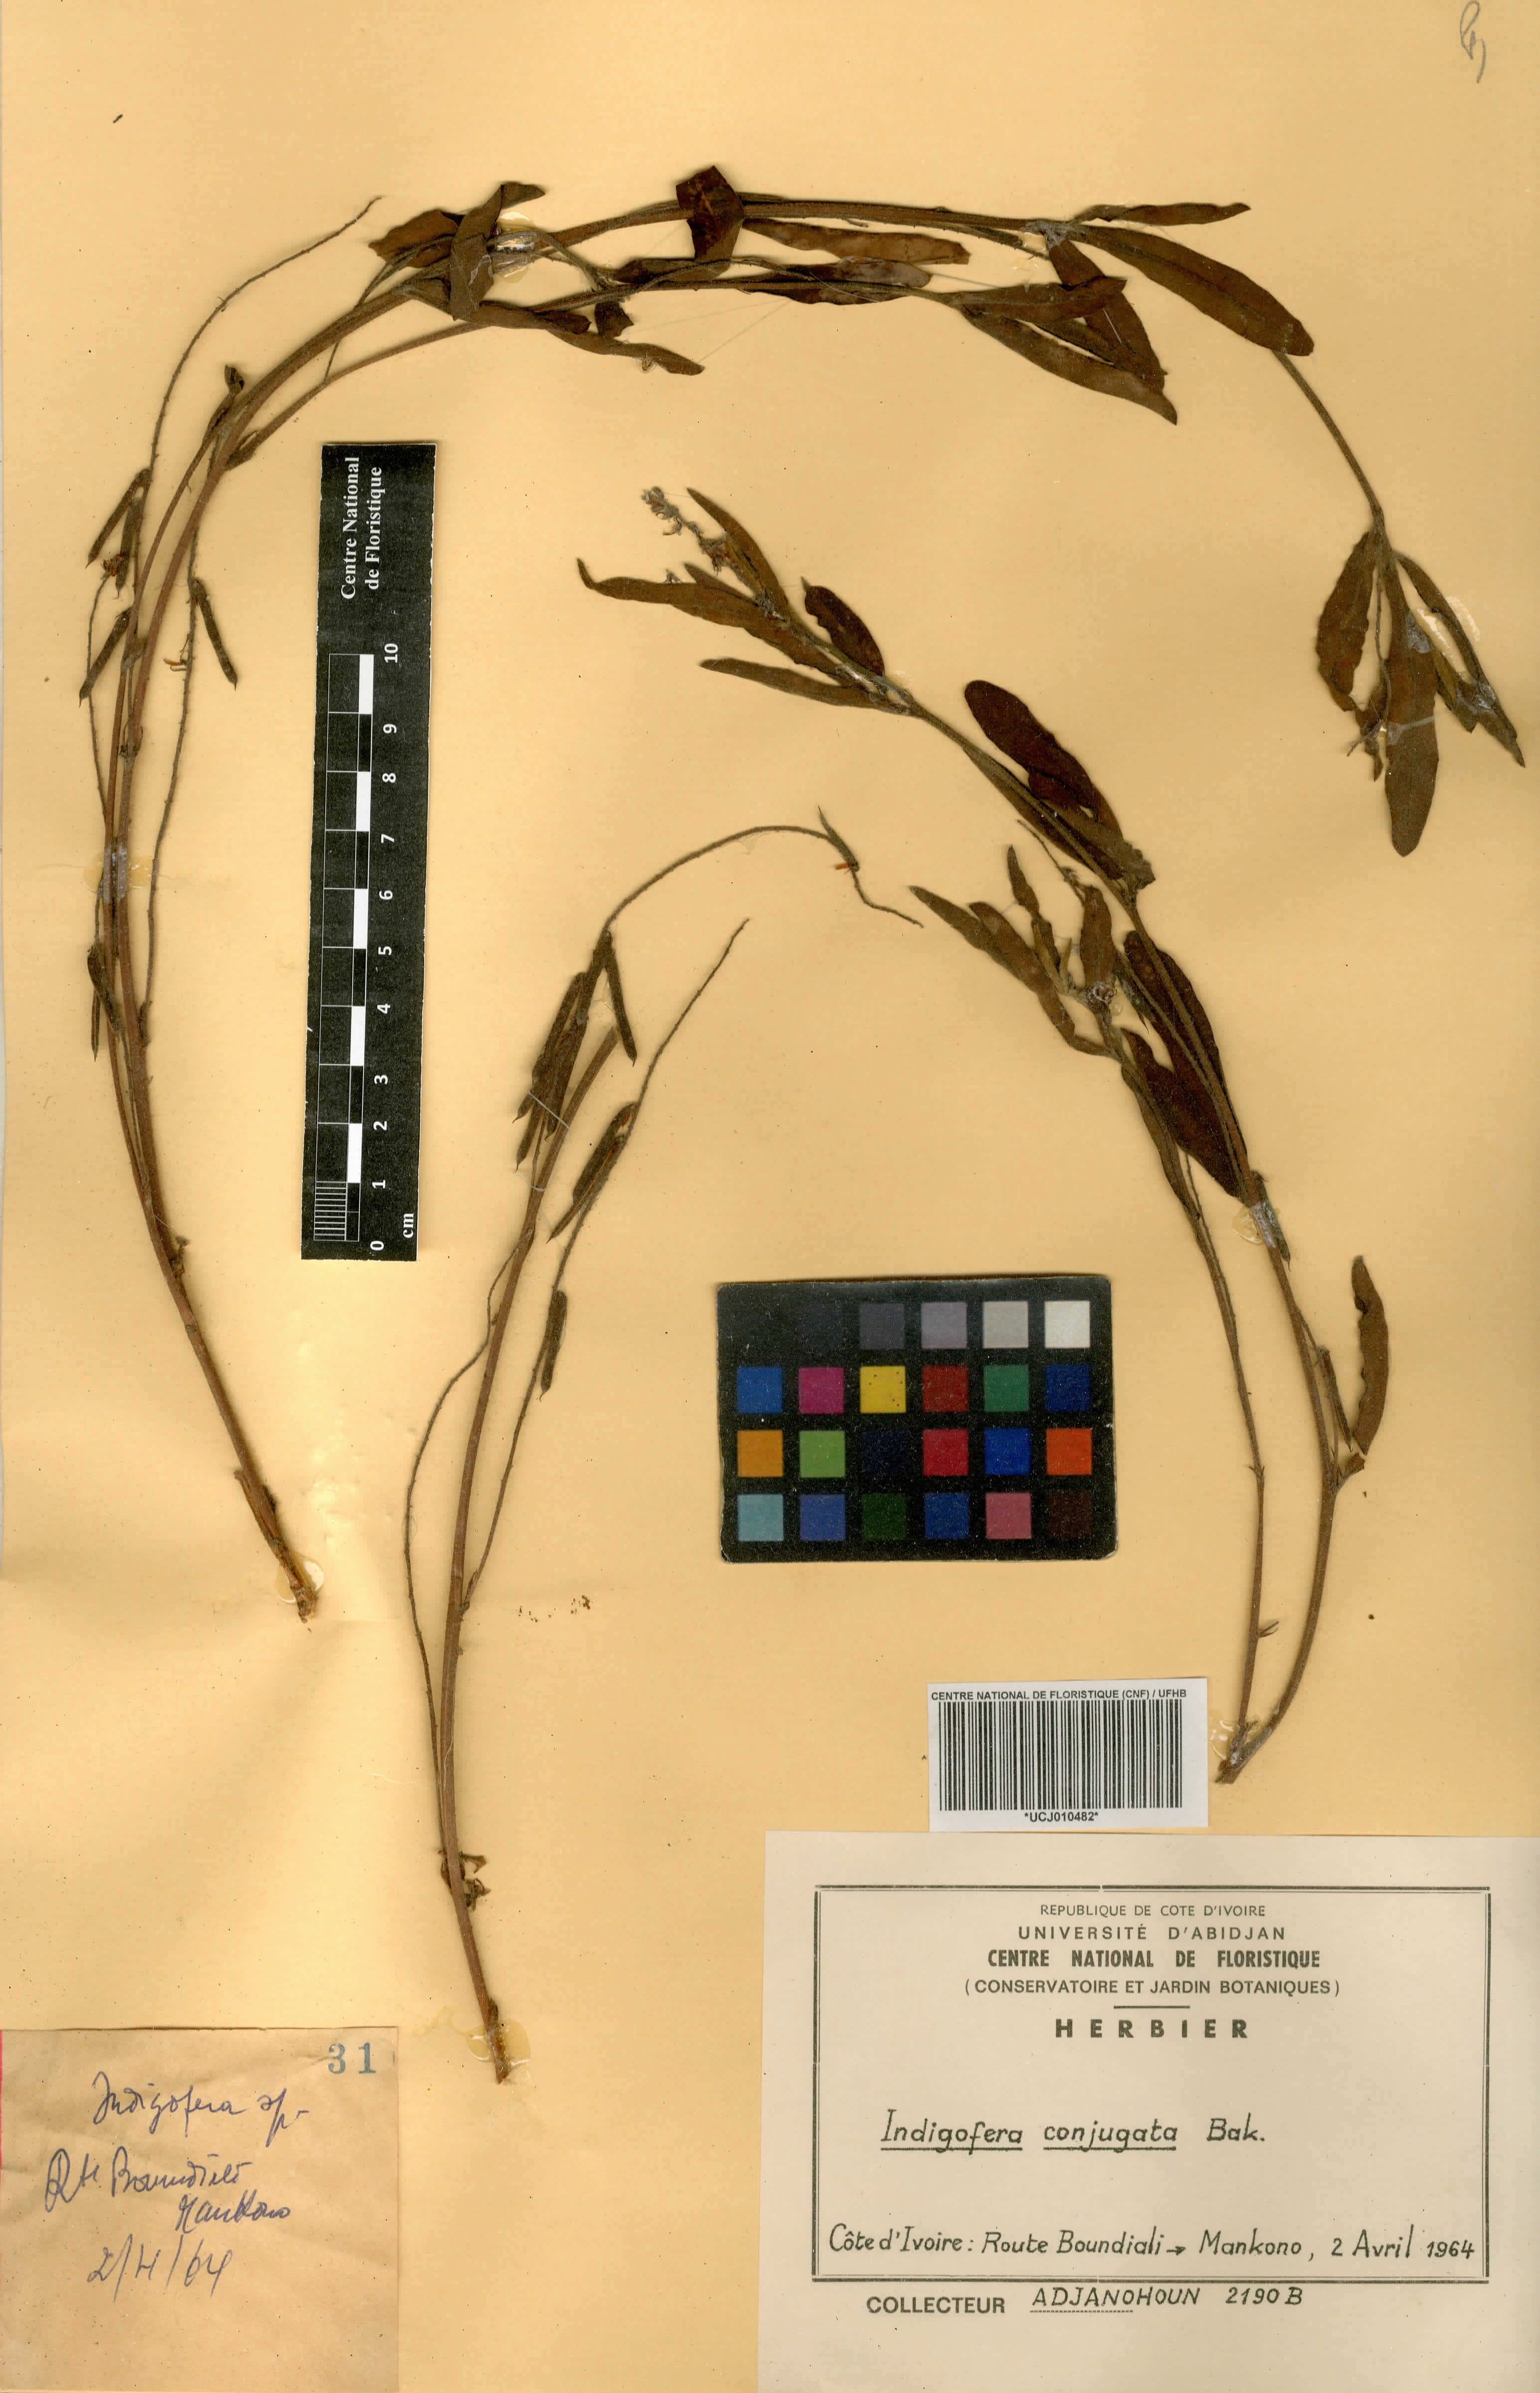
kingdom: Plantae
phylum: Tracheophyta
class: Magnoliopsida
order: Fabales
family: Fabaceae
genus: Indigofera
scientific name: Indigofera conjugata
